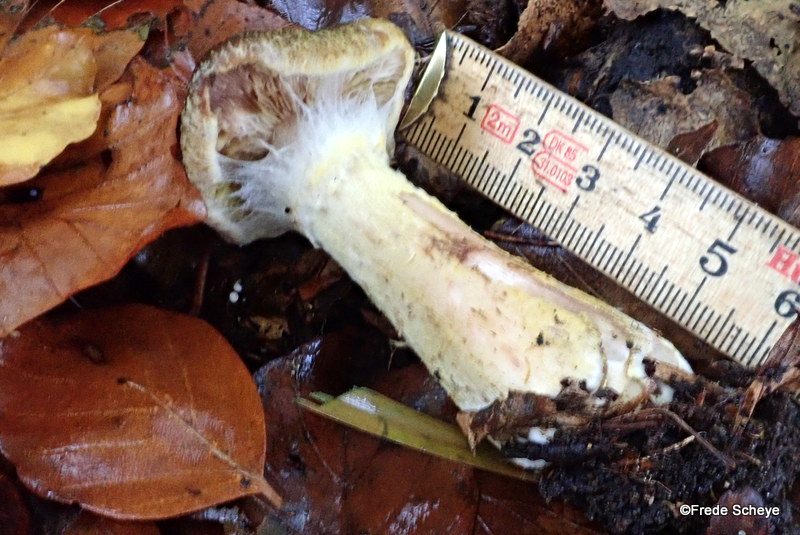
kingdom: Fungi
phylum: Basidiomycota
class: Agaricomycetes
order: Agaricales
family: Physalacriaceae
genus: Armillaria
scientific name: Armillaria lutea
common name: køllestokket honningsvamp
